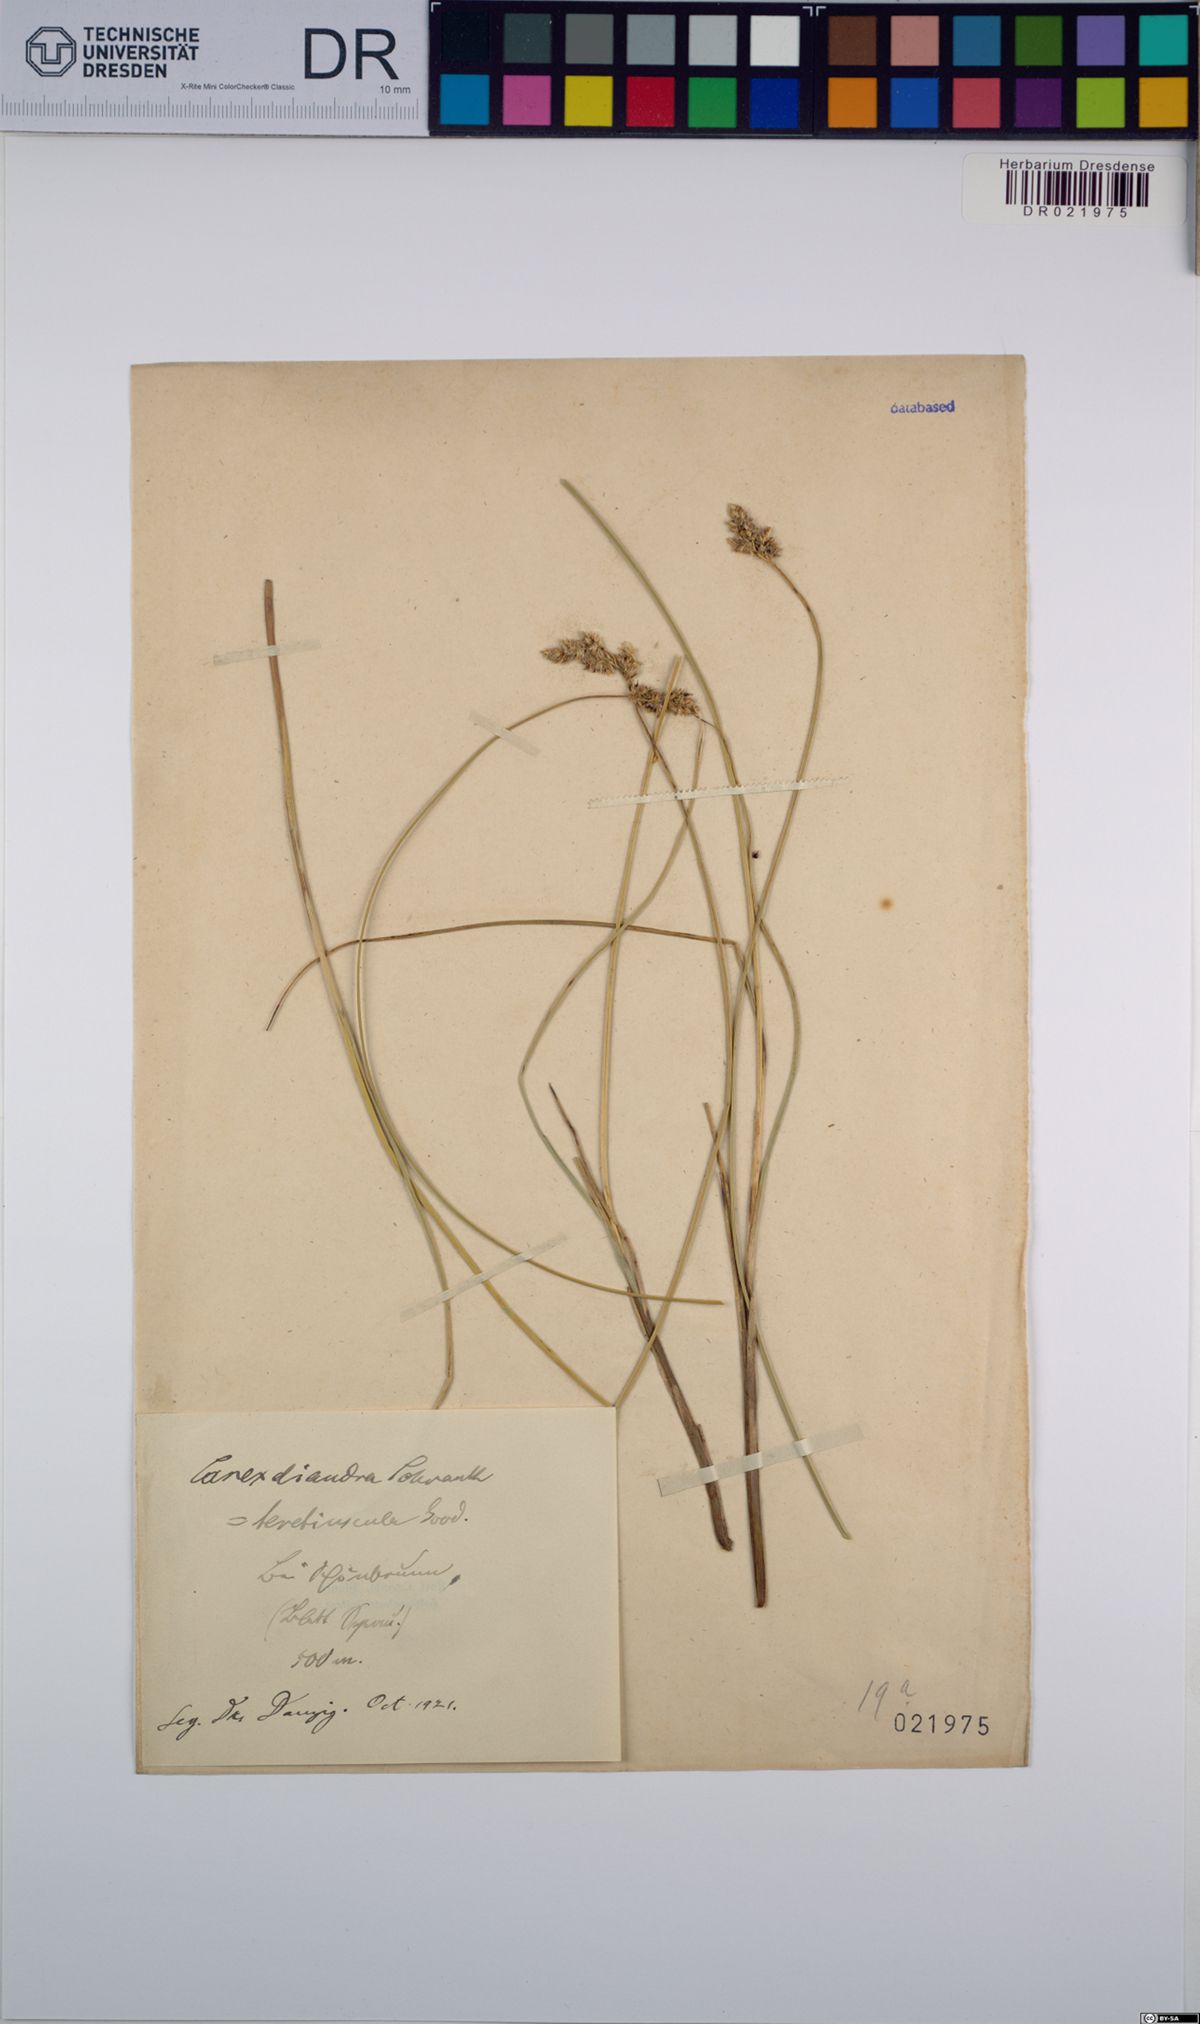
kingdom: Plantae
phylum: Tracheophyta
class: Liliopsida
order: Poales
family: Cyperaceae
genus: Carex
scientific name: Carex diandra
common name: Lesser tussock-sedge
